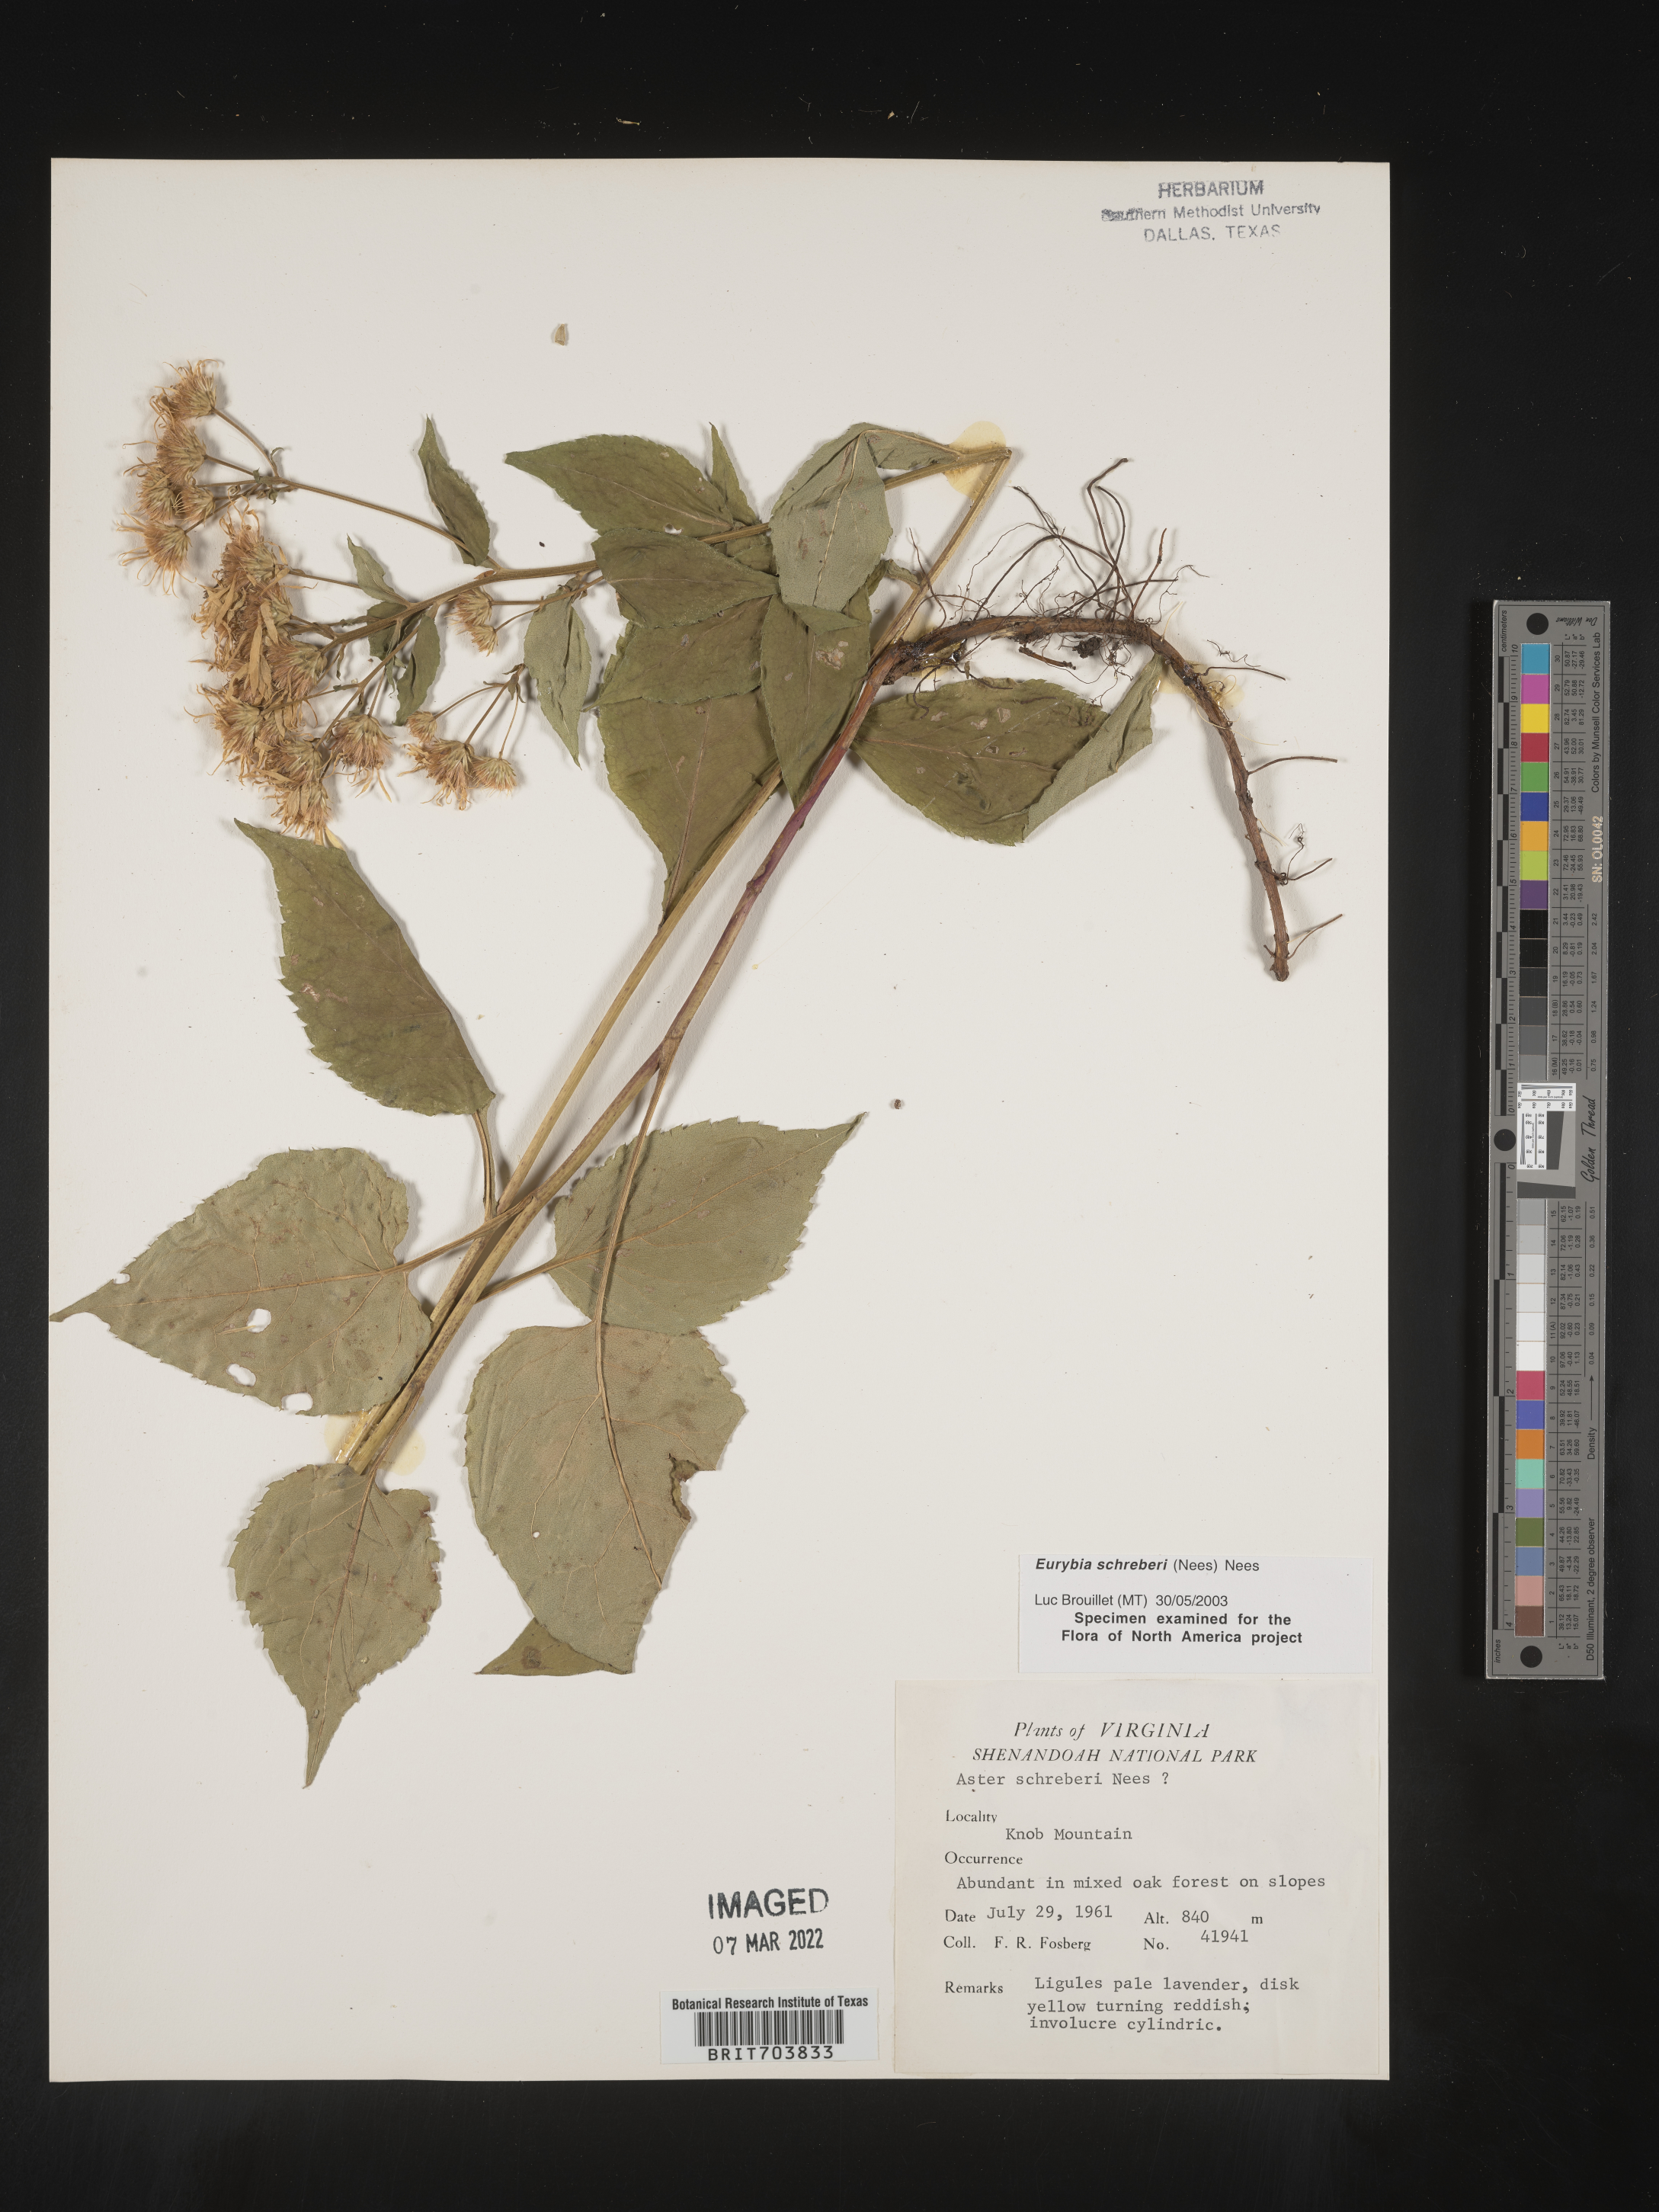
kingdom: Plantae
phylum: Tracheophyta
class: Magnoliopsida
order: Asterales
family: Asteraceae
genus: Eurybia
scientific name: Eurybia schreberi
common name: Schreber's aster
